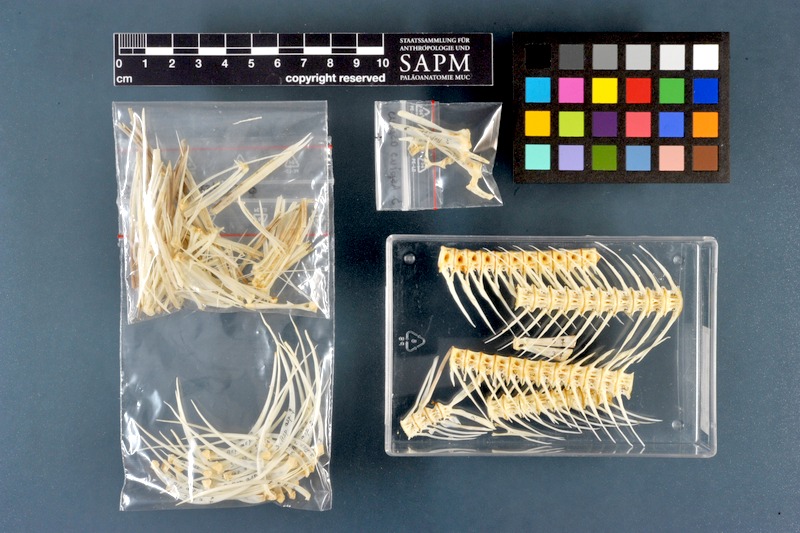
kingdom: Animalia
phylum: Chordata
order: Cypriniformes
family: Cyprinidae
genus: Leuciscus
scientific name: Leuciscus aspius
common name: Asp
